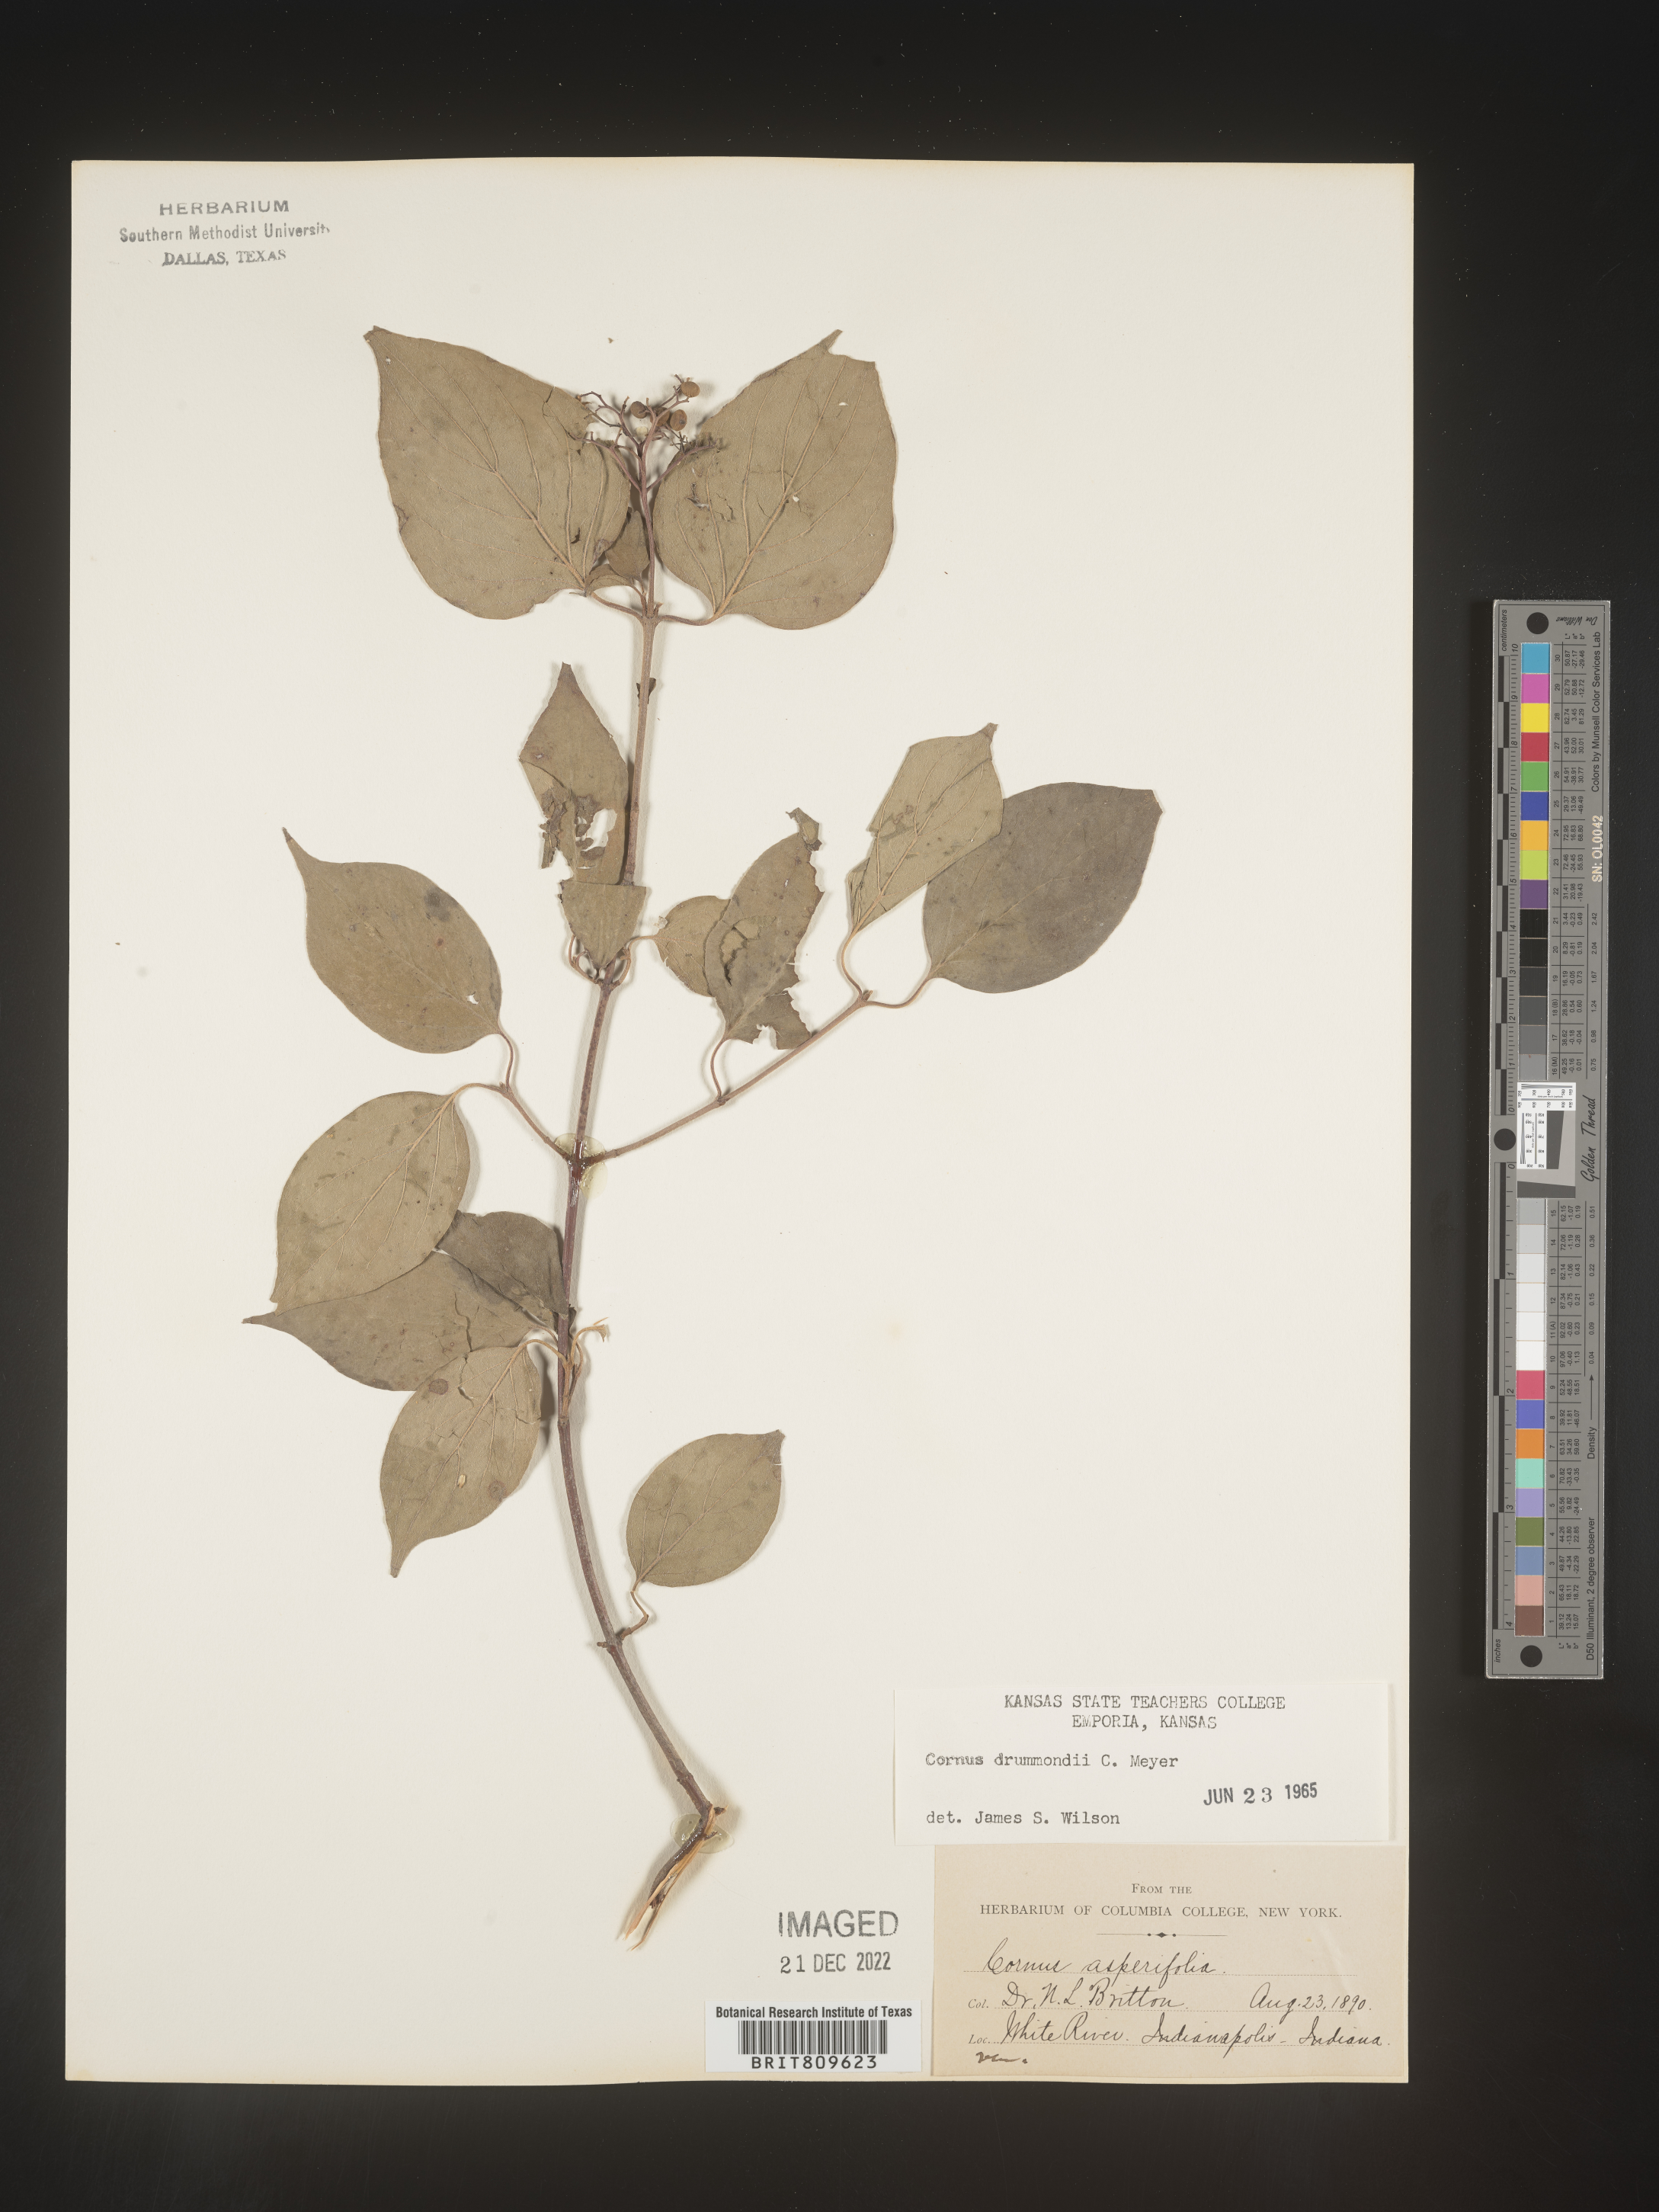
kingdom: Plantae
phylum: Tracheophyta
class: Magnoliopsida
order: Cornales
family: Cornaceae
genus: Cornus
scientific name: Cornus drummondii
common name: Rough-leaf dogwood
